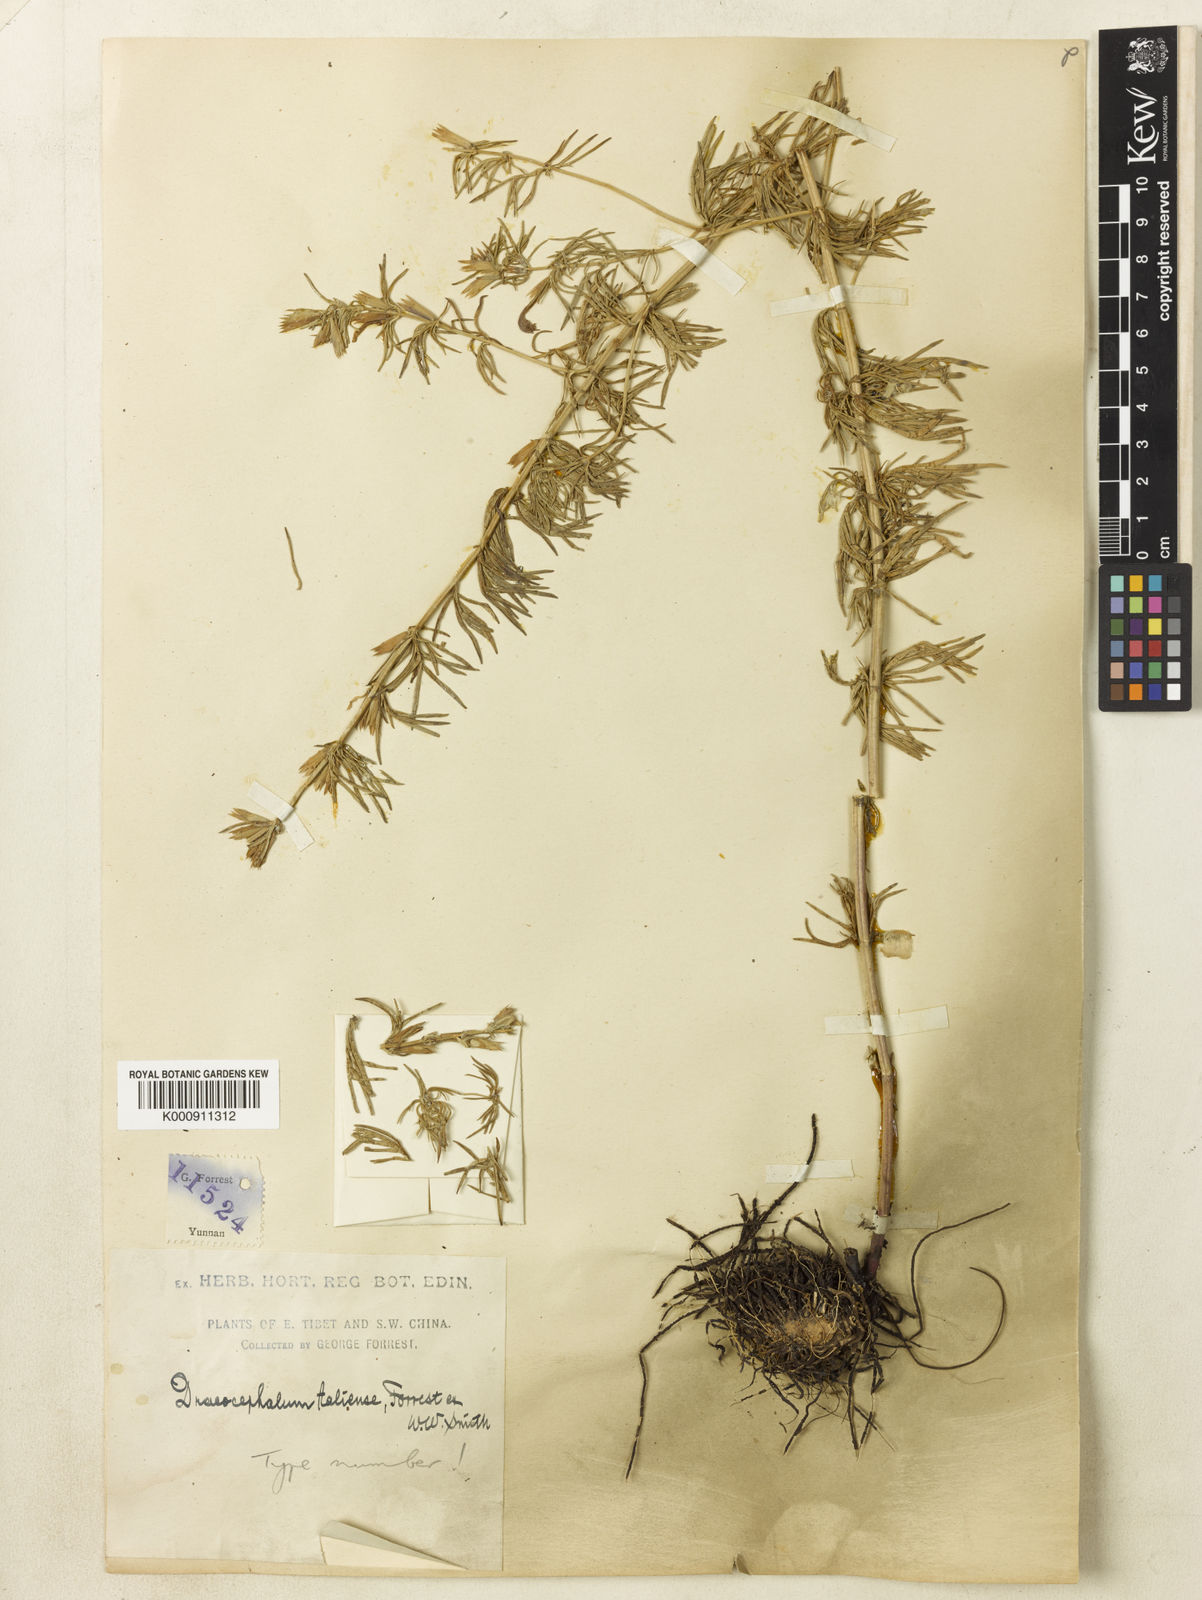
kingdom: Plantae
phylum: Tracheophyta
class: Magnoliopsida
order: Lamiales
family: Lamiaceae
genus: Dracocephalum
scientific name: Dracocephalum taliense
